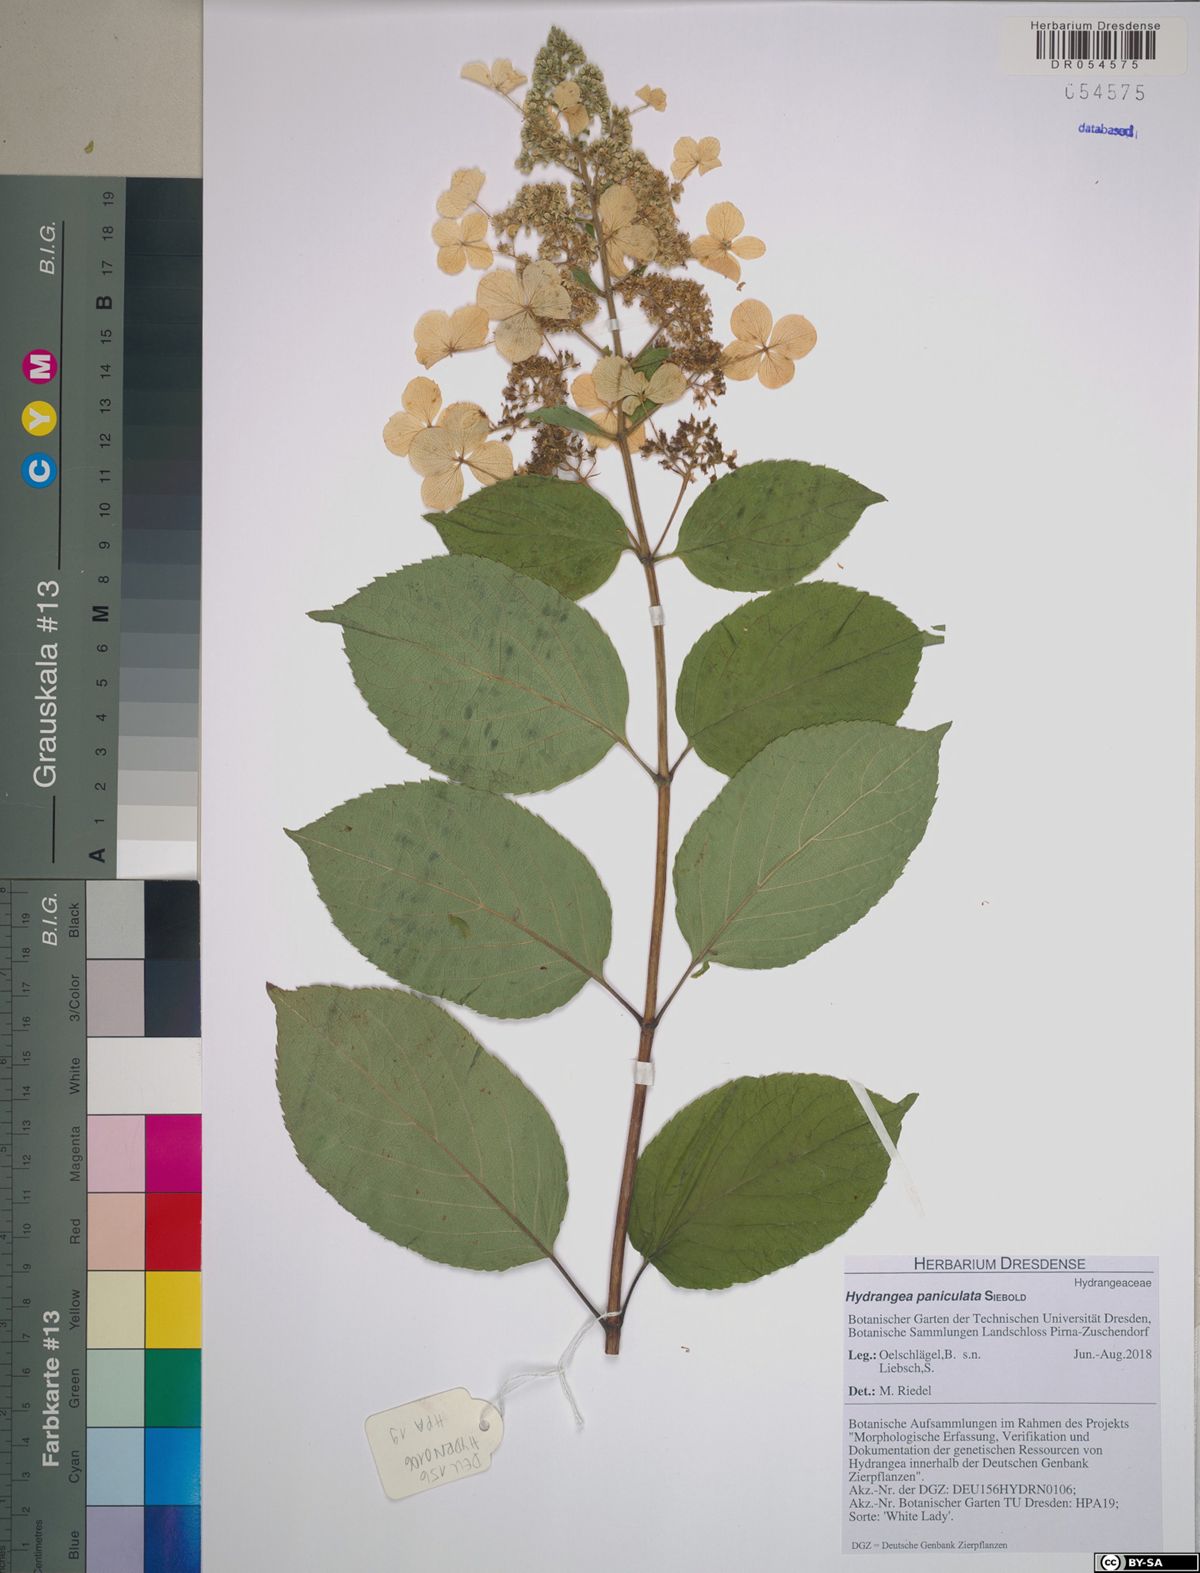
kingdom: Plantae
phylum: Tracheophyta
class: Magnoliopsida
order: Cornales
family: Hydrangeaceae
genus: Hydrangea
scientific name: Hydrangea paniculata
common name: Panicled hydrangea
